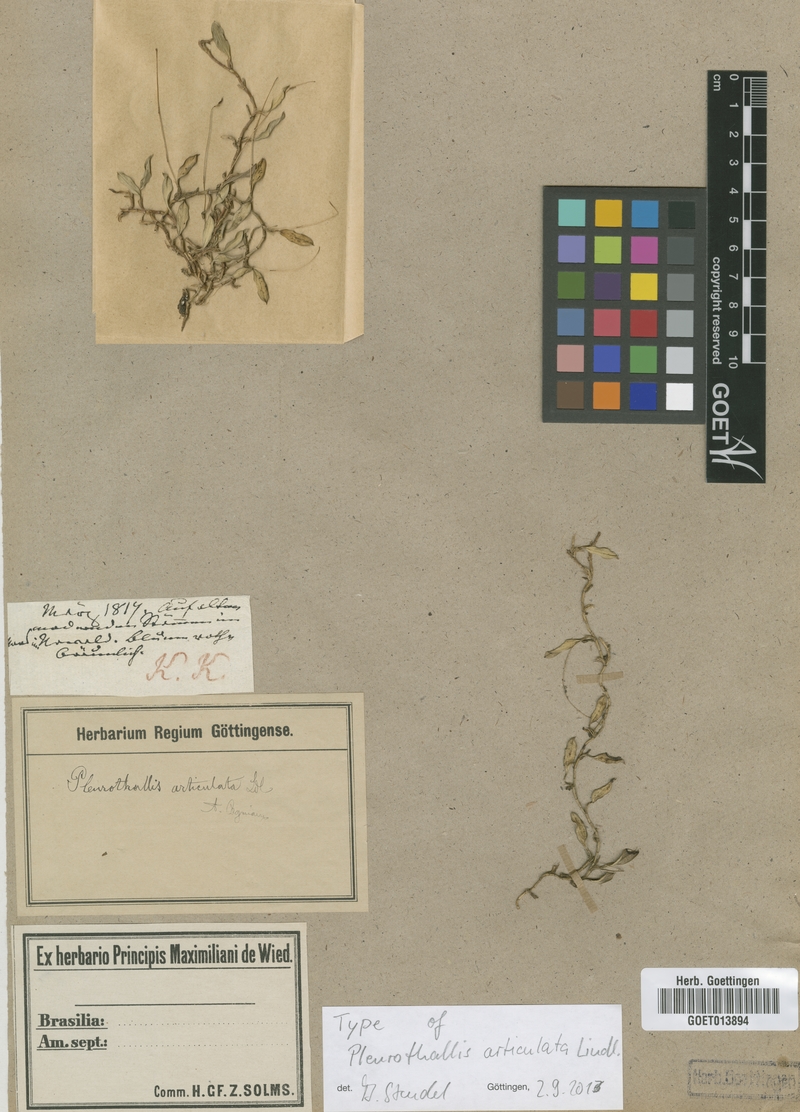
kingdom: Plantae
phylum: Tracheophyta
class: Liliopsida
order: Asparagales
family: Orchidaceae
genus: Madisonia
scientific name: Madisonia articulata
